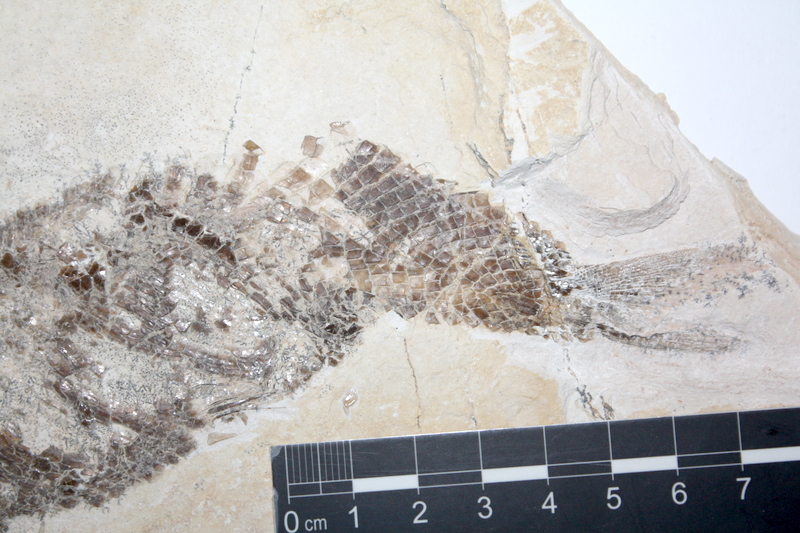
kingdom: Animalia
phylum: Chordata
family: Ankylophoridae
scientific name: Ankylophoridae
